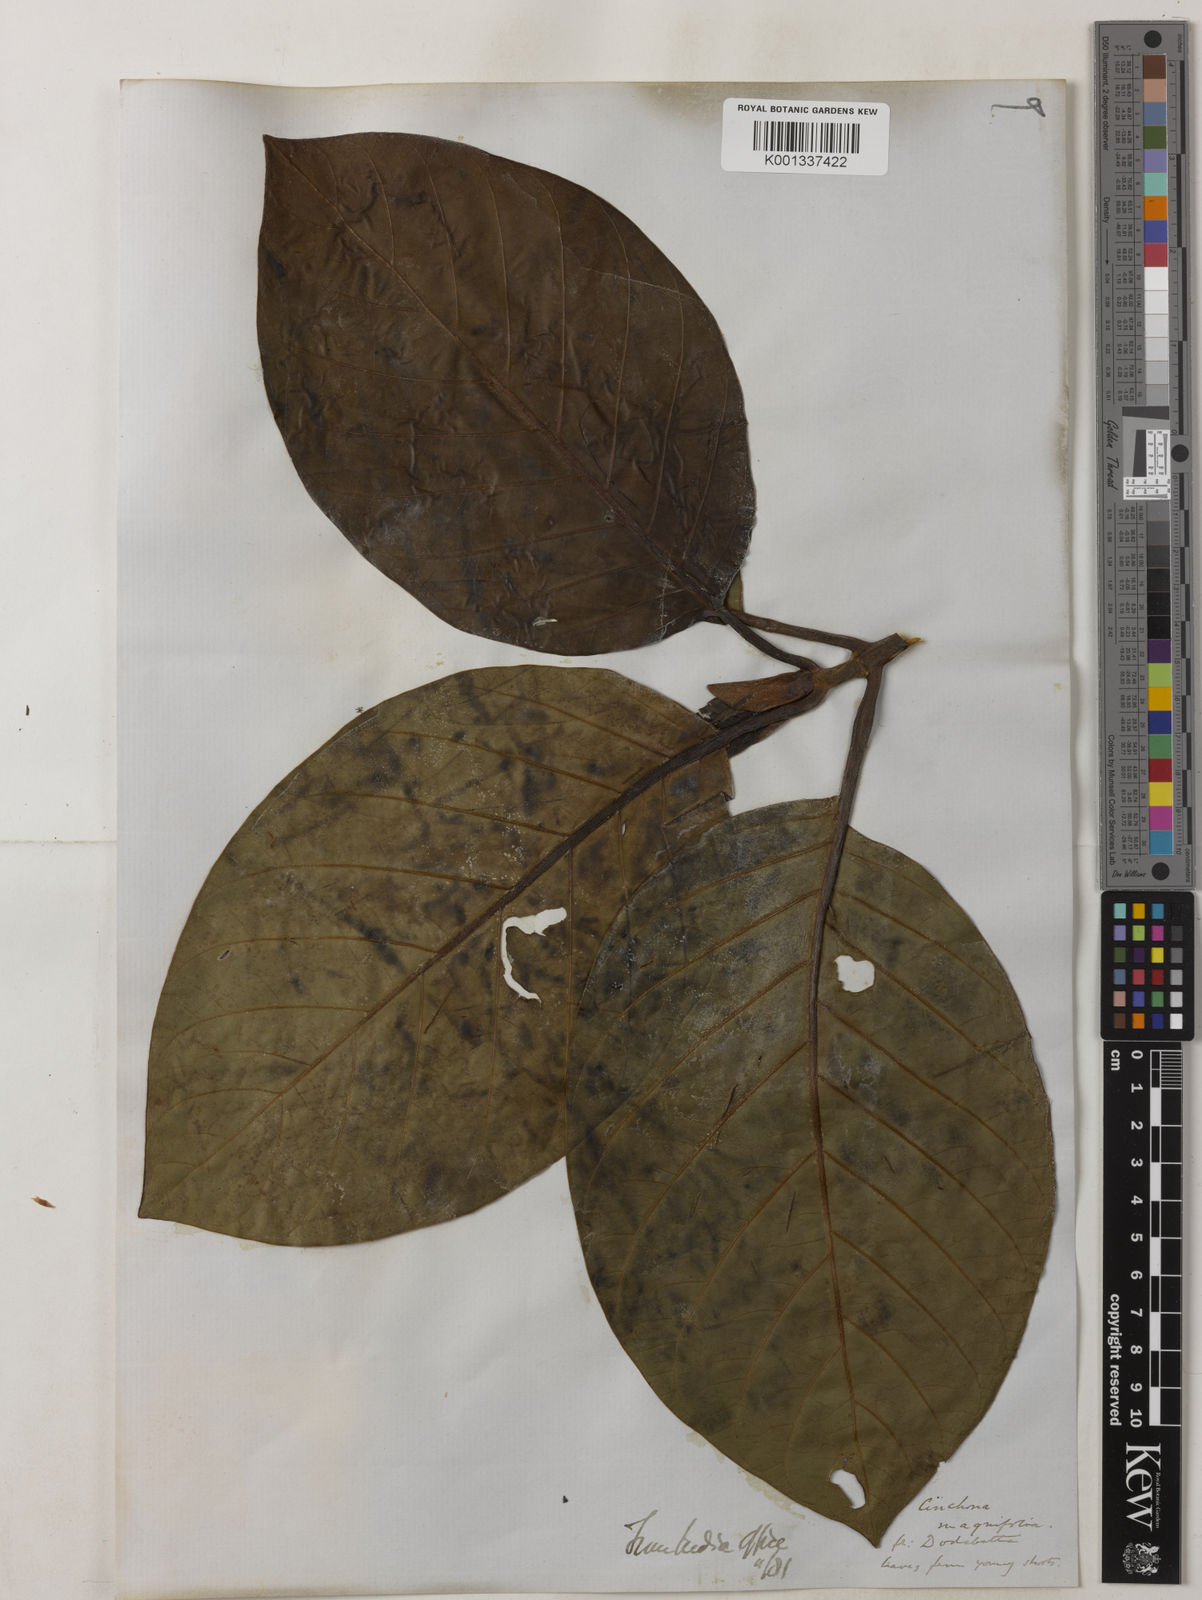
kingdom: Plantae
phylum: Tracheophyta
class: Magnoliopsida
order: Gentianales
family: Rubiaceae
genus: Ladenbergia
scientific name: Ladenbergia macrocarpa
